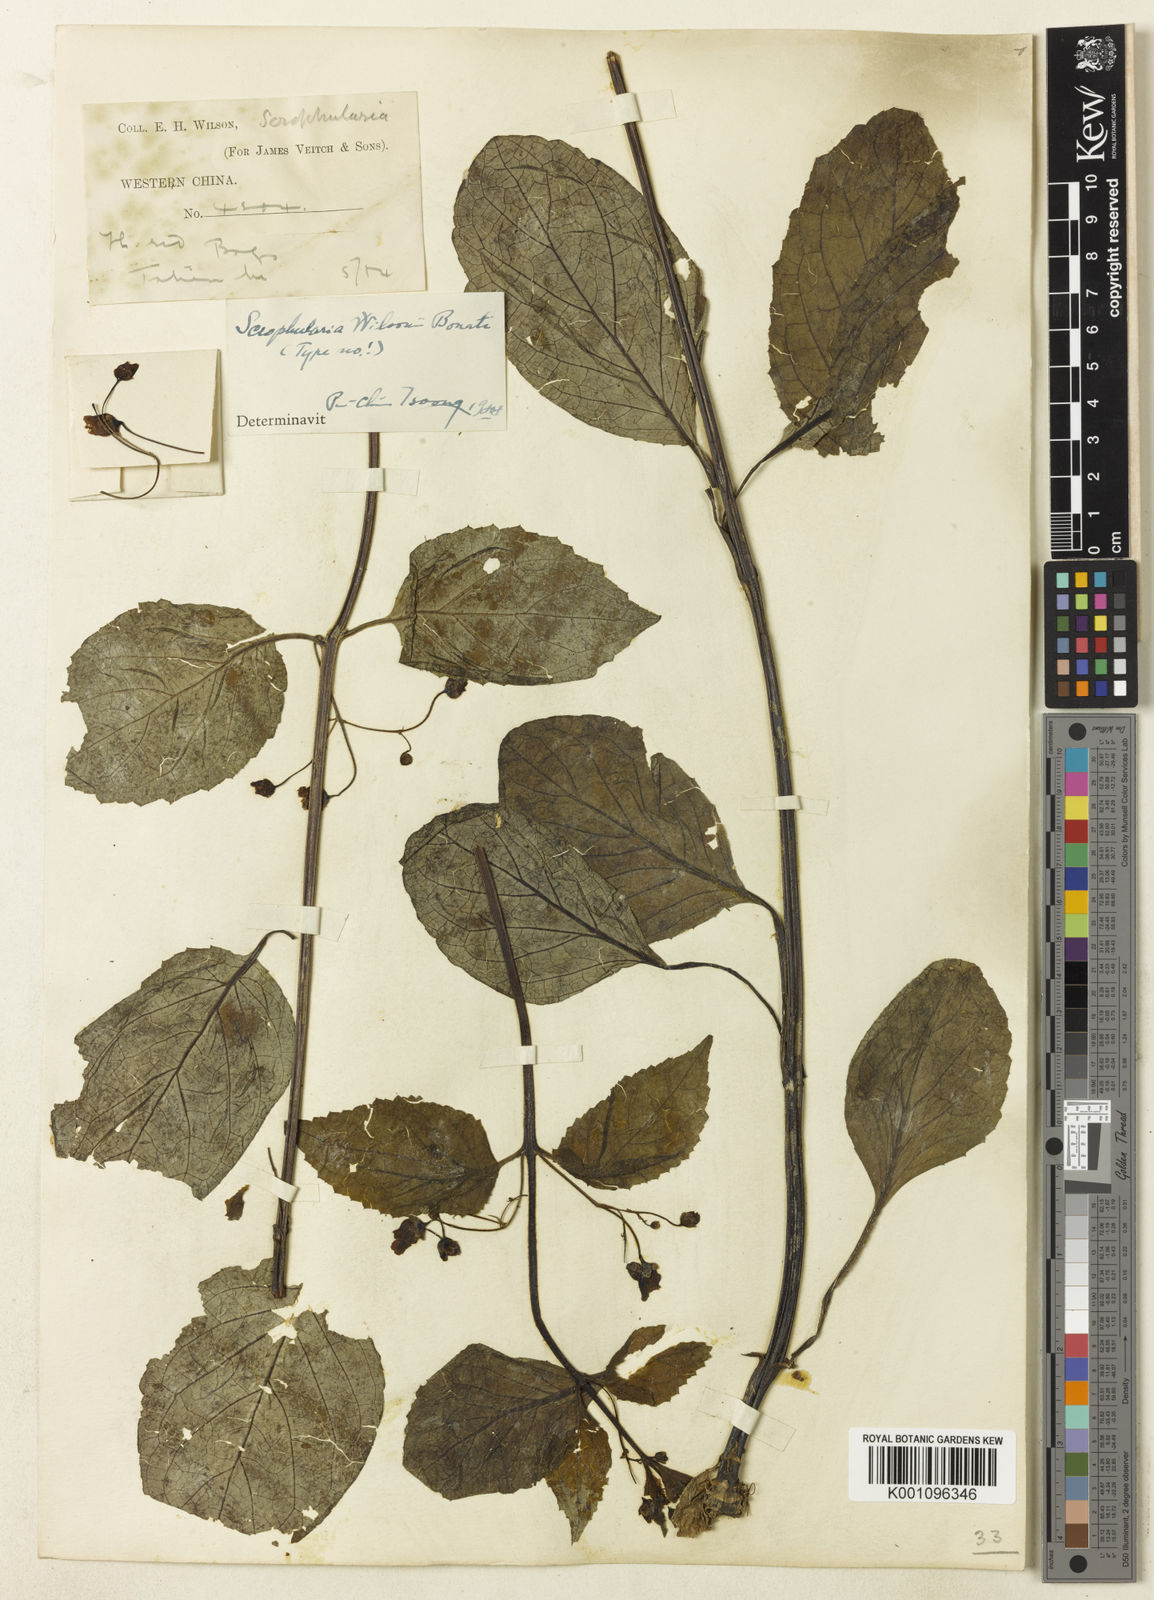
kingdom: Plantae
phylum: Tracheophyta
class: Magnoliopsida
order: Lamiales
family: Scrophulariaceae
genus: Scrophularia
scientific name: Scrophularia fargesii
